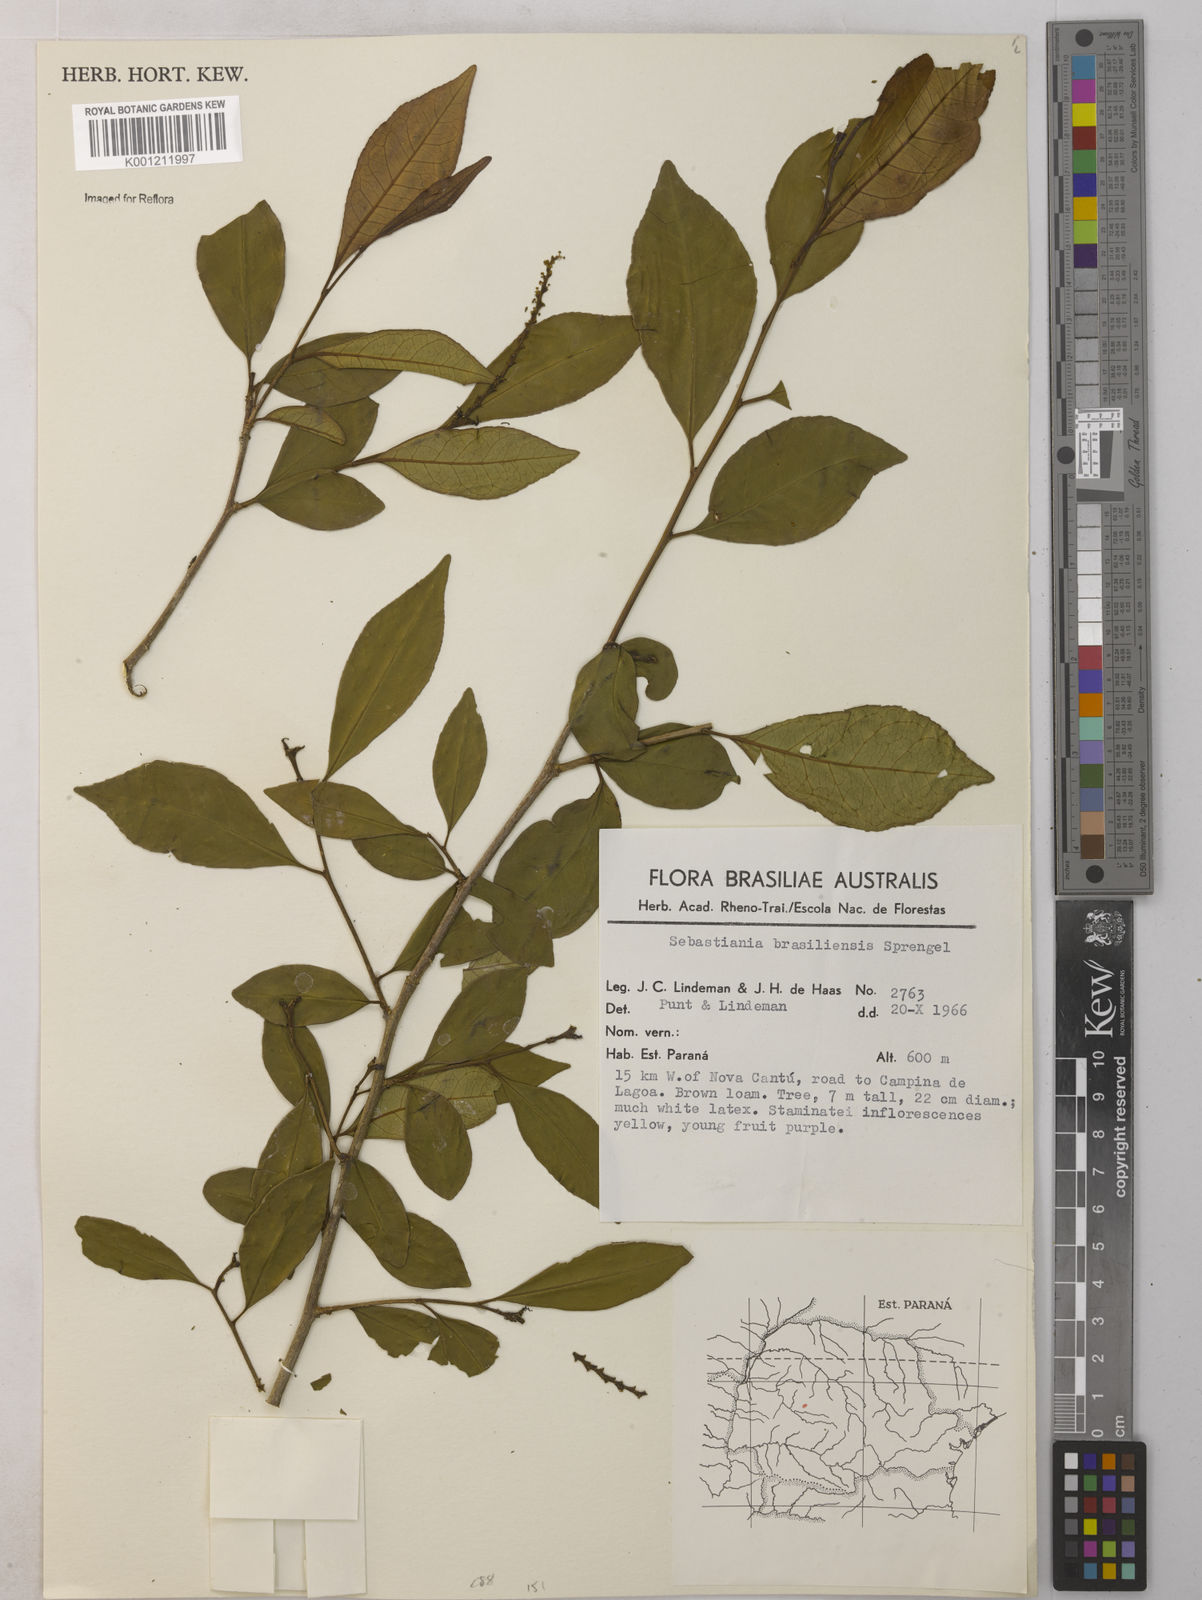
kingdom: Plantae
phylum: Tracheophyta
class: Magnoliopsida
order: Malpighiales
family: Euphorbiaceae
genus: Sebastiania
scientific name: Sebastiania brasiliensis
